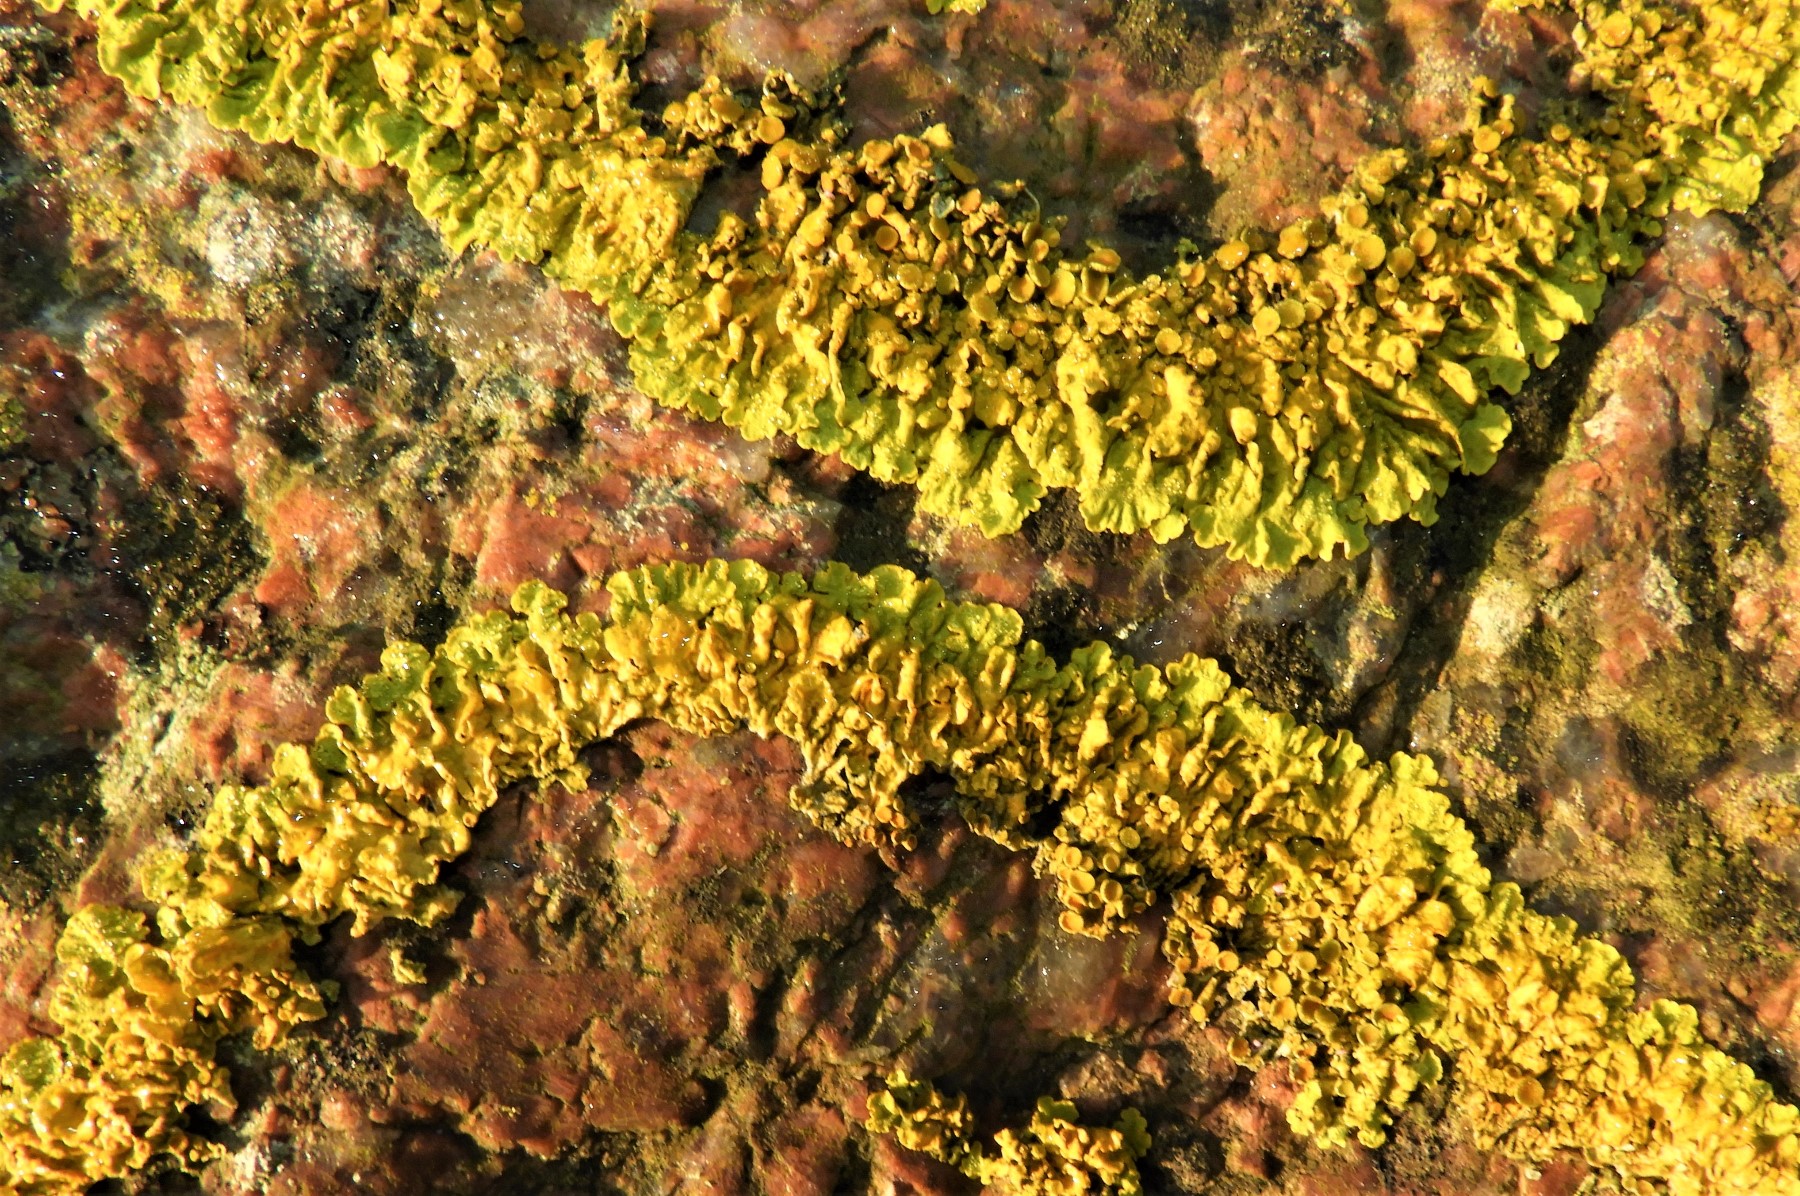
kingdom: Fungi
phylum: Ascomycota
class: Lecanoromycetes
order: Teloschistales
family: Teloschistaceae
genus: Xanthoria
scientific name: Xanthoria parietina
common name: almindelig væggelav
